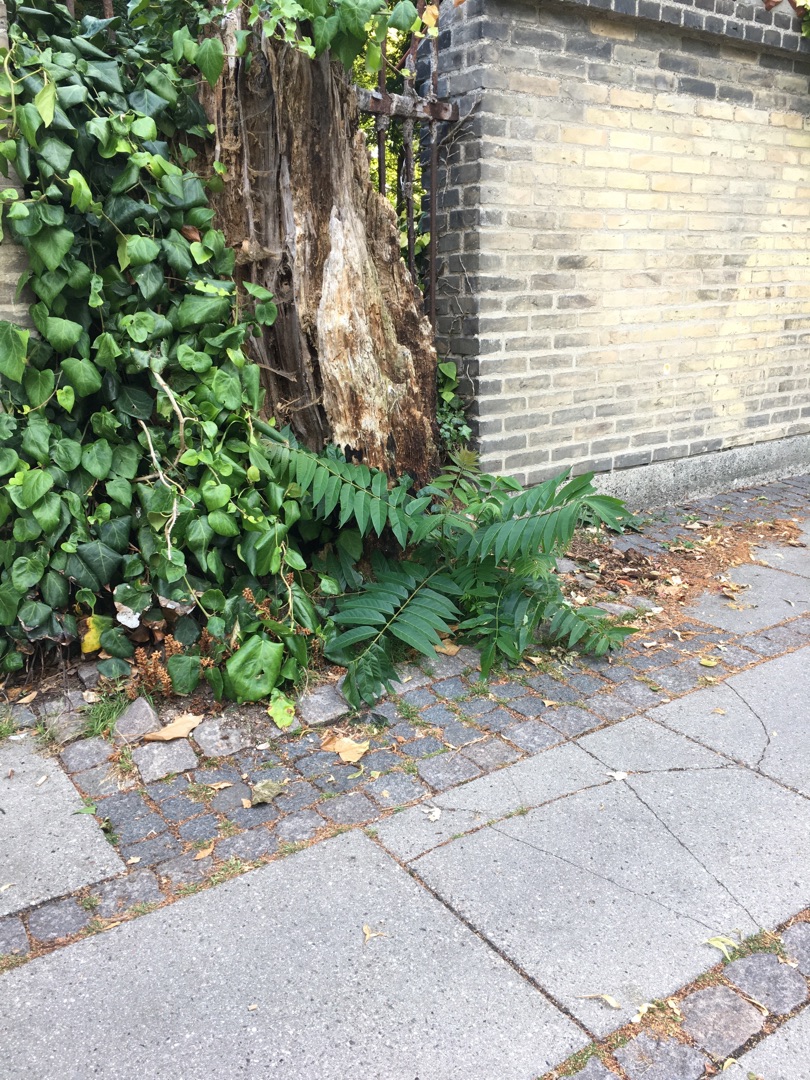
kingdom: Plantae
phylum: Tracheophyta
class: Magnoliopsida
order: Sapindales
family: Simaroubaceae
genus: Ailanthus
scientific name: Ailanthus altissima
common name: Skyrækker
